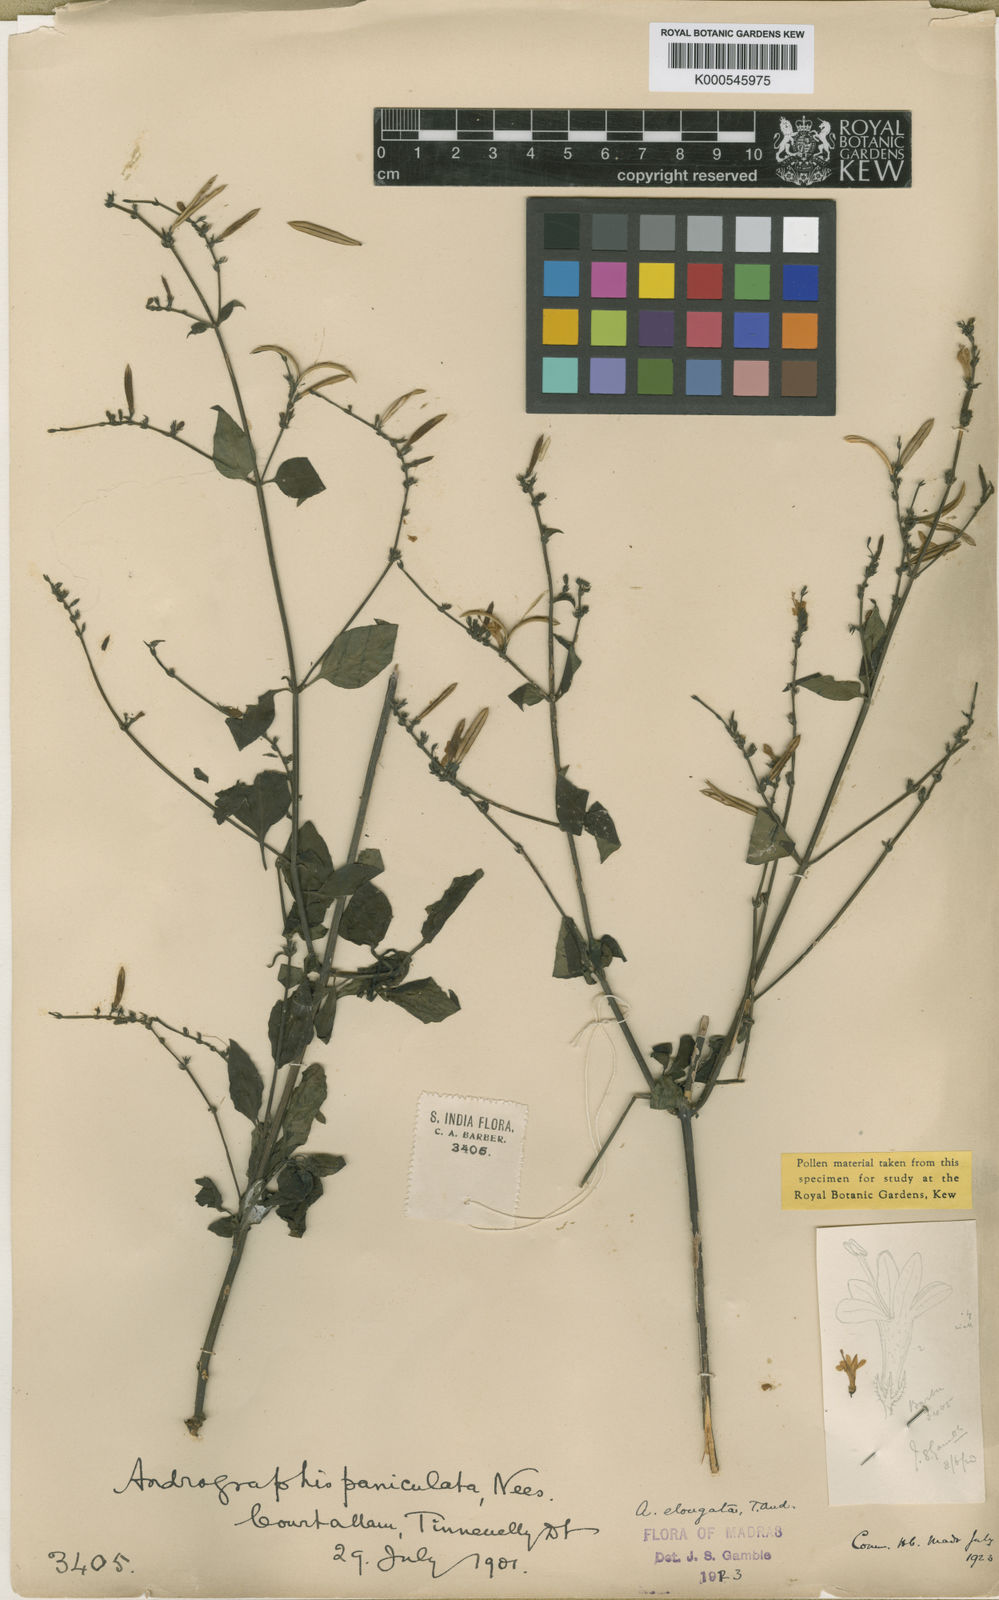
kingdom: Plantae
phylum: Tracheophyta
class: Magnoliopsida
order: Lamiales
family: Acanthaceae
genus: Andrographis
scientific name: Andrographis elongata
